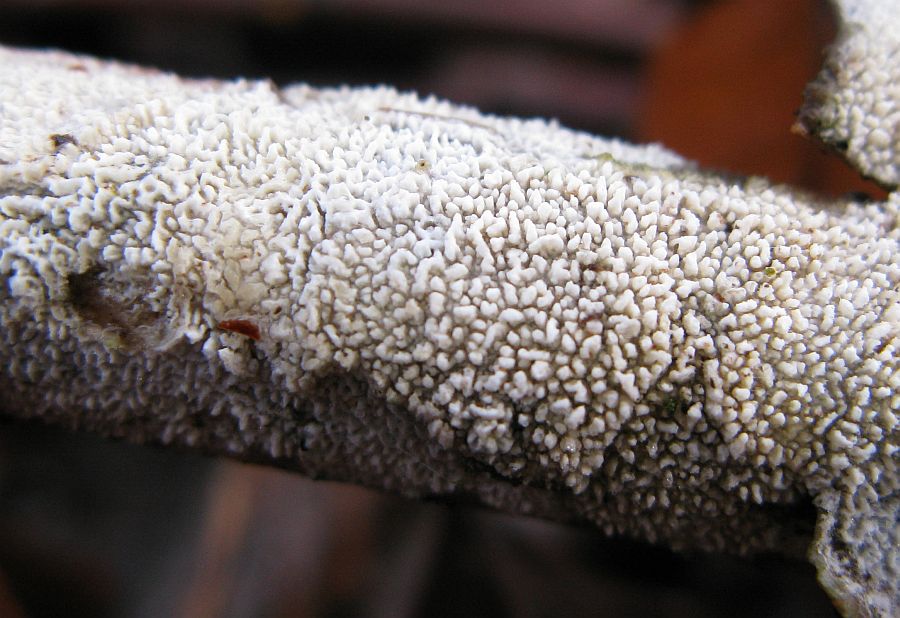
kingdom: Fungi
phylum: Basidiomycota
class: Agaricomycetes
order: Hymenochaetales
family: Schizoporaceae
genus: Schizopora
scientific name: Schizopora paradoxa
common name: hvid tandsvamp
